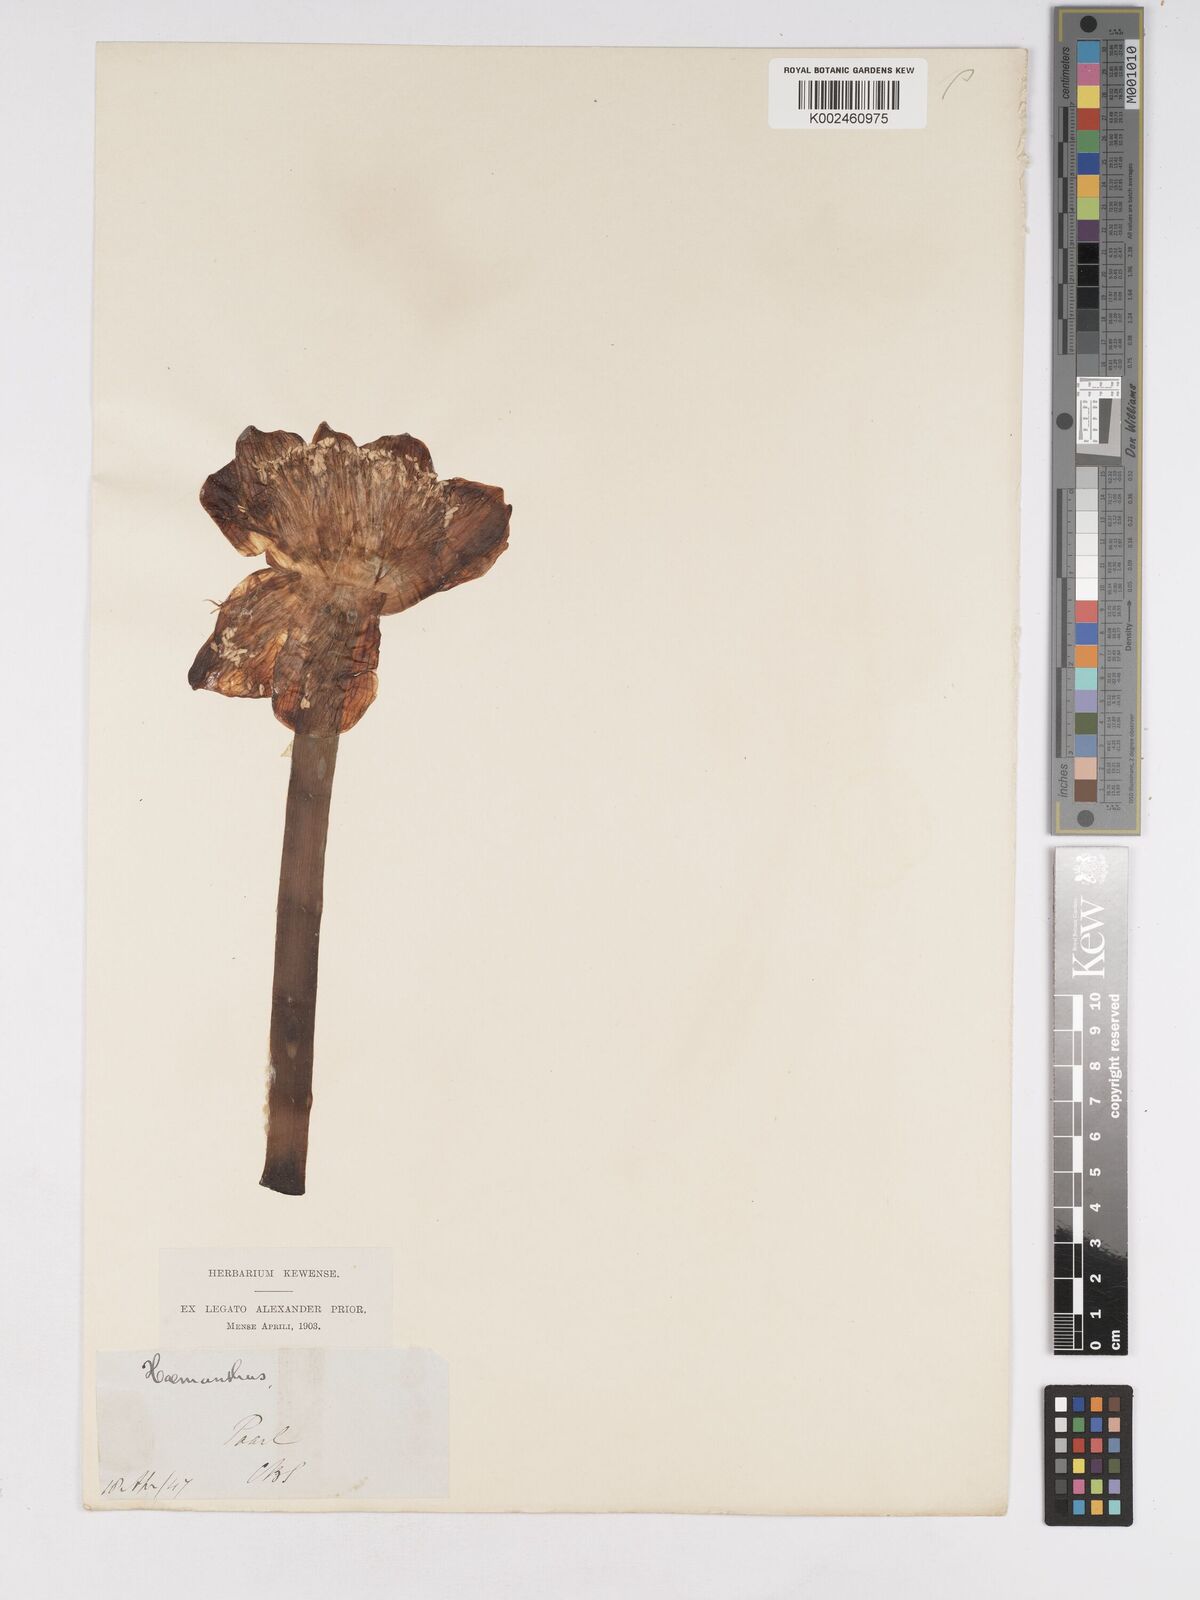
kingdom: Plantae
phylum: Tracheophyta
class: Liliopsida
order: Asparagales
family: Amaryllidaceae
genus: Haemanthus
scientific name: Haemanthus coccineus
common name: Cape-tulip
